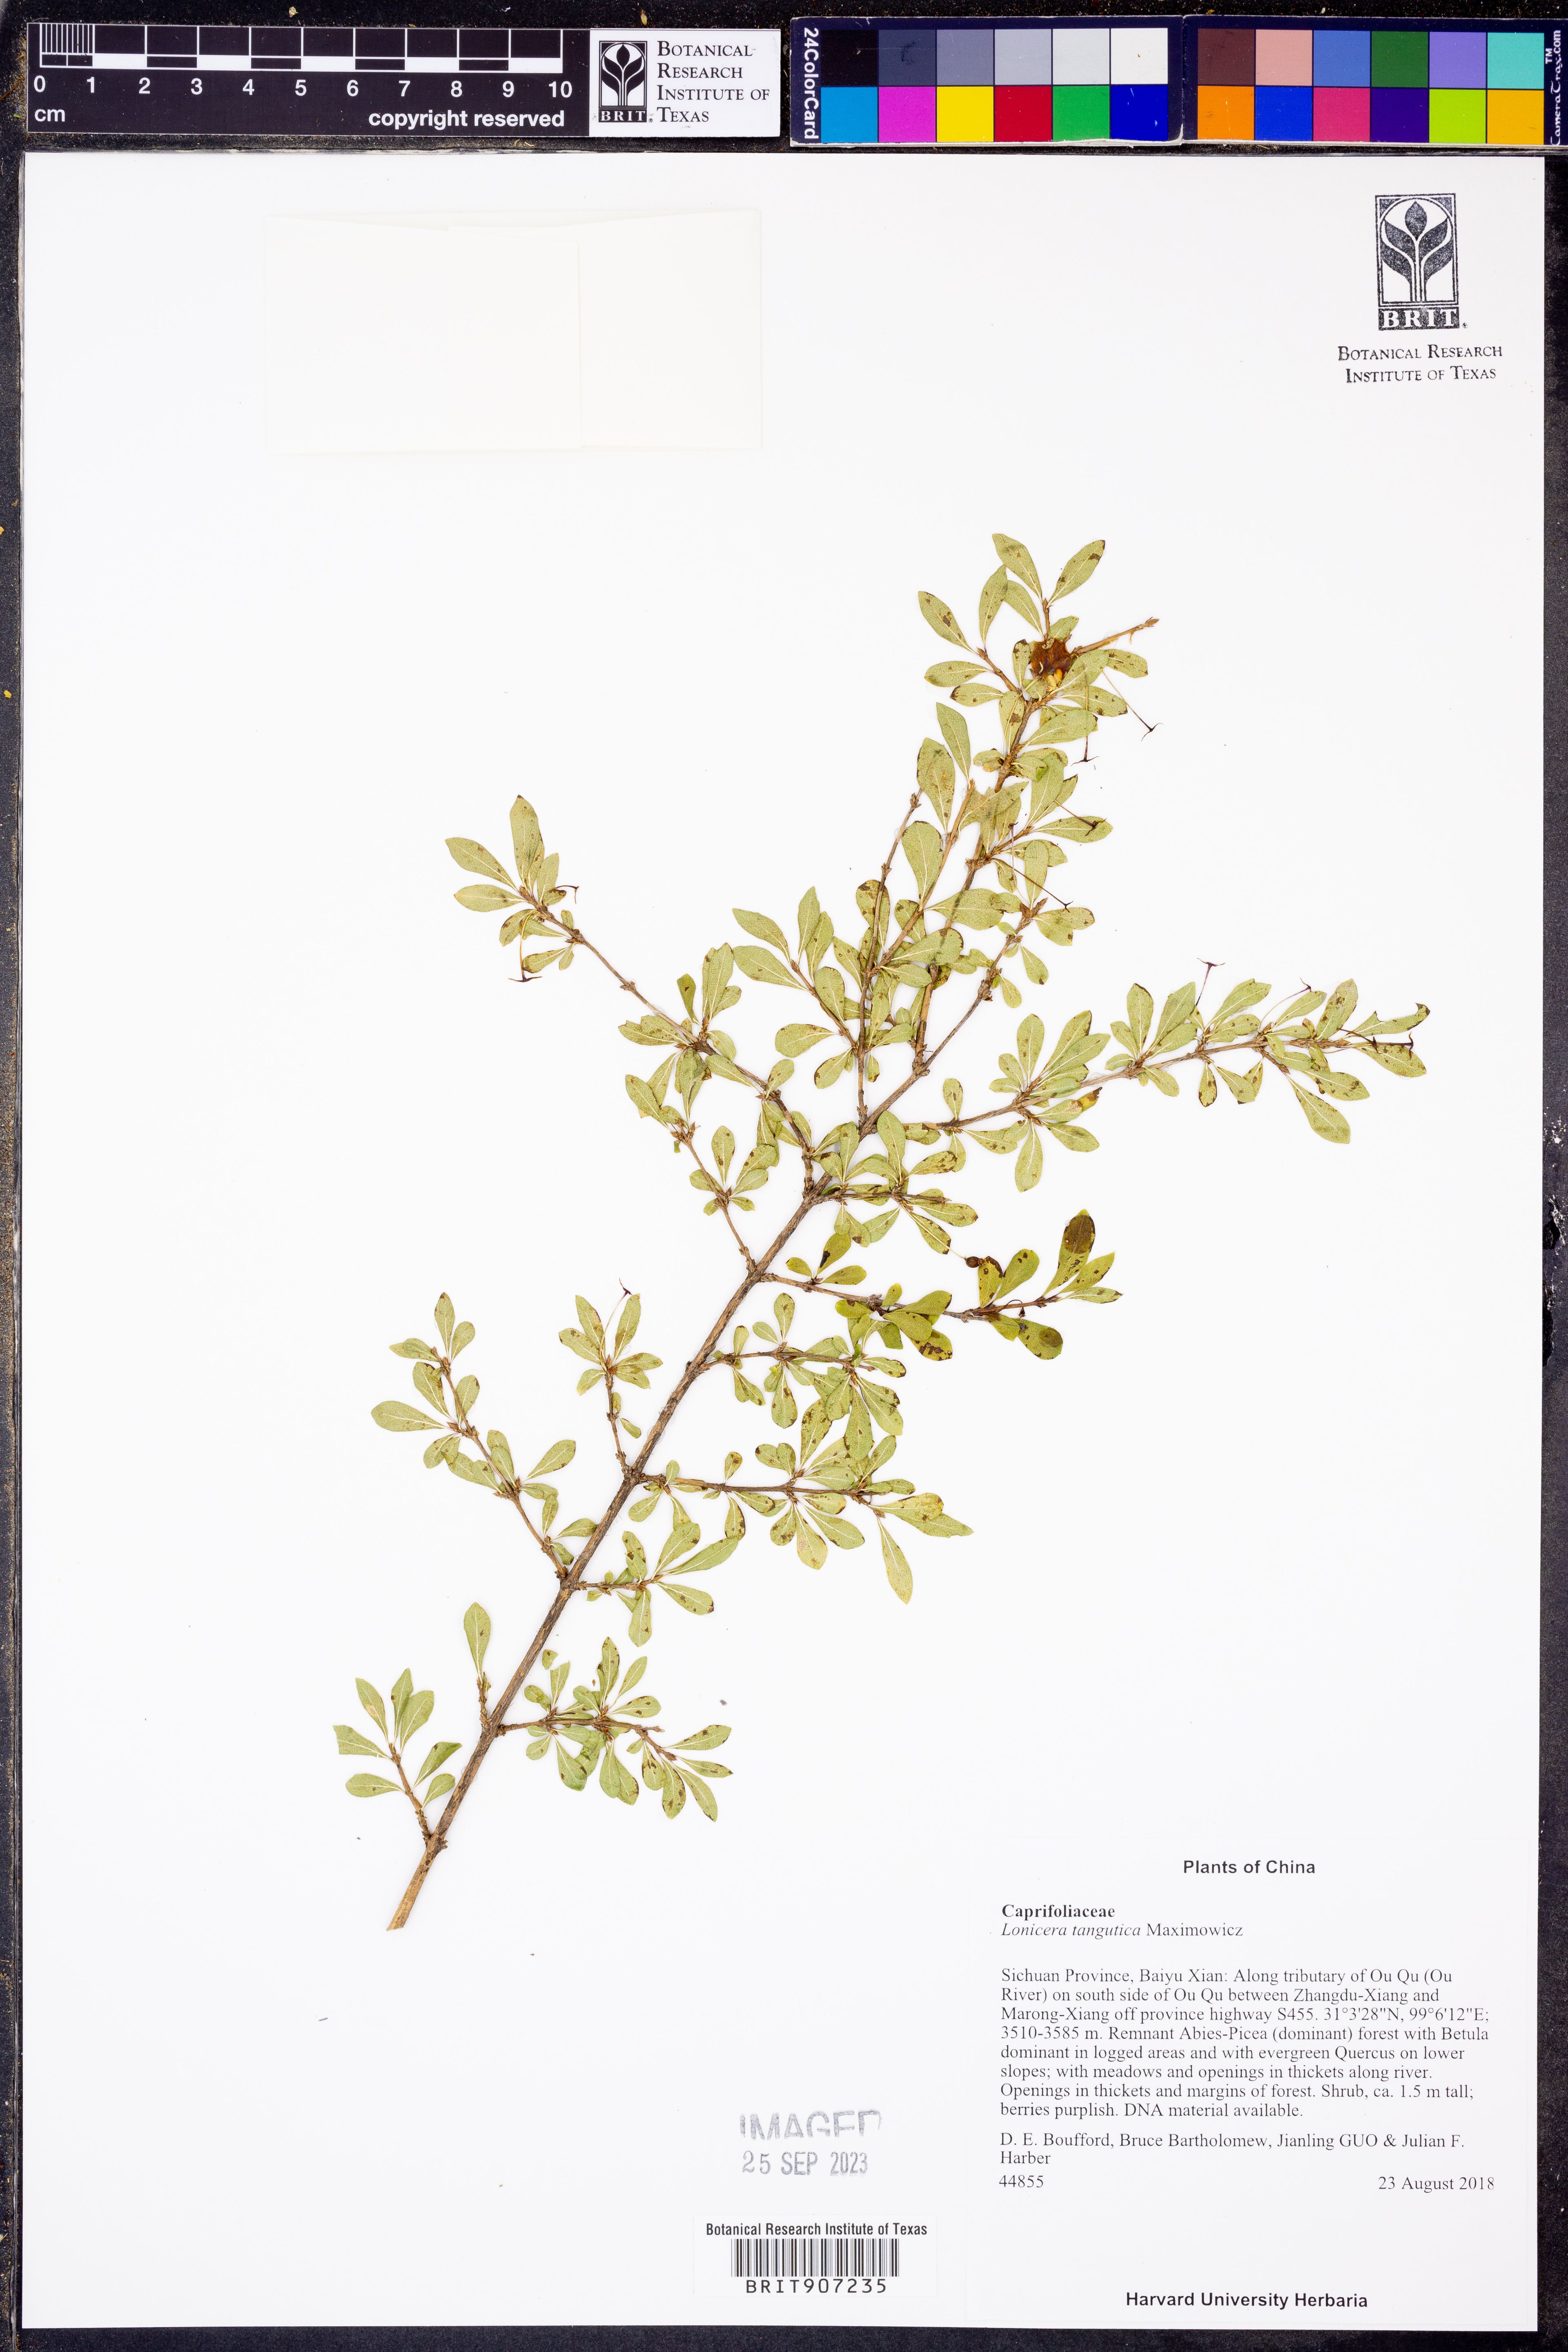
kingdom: Plantae
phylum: Tracheophyta
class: Magnoliopsida
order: Dipsacales
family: Caprifoliaceae
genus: Lonicera
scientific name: Lonicera tangutica
